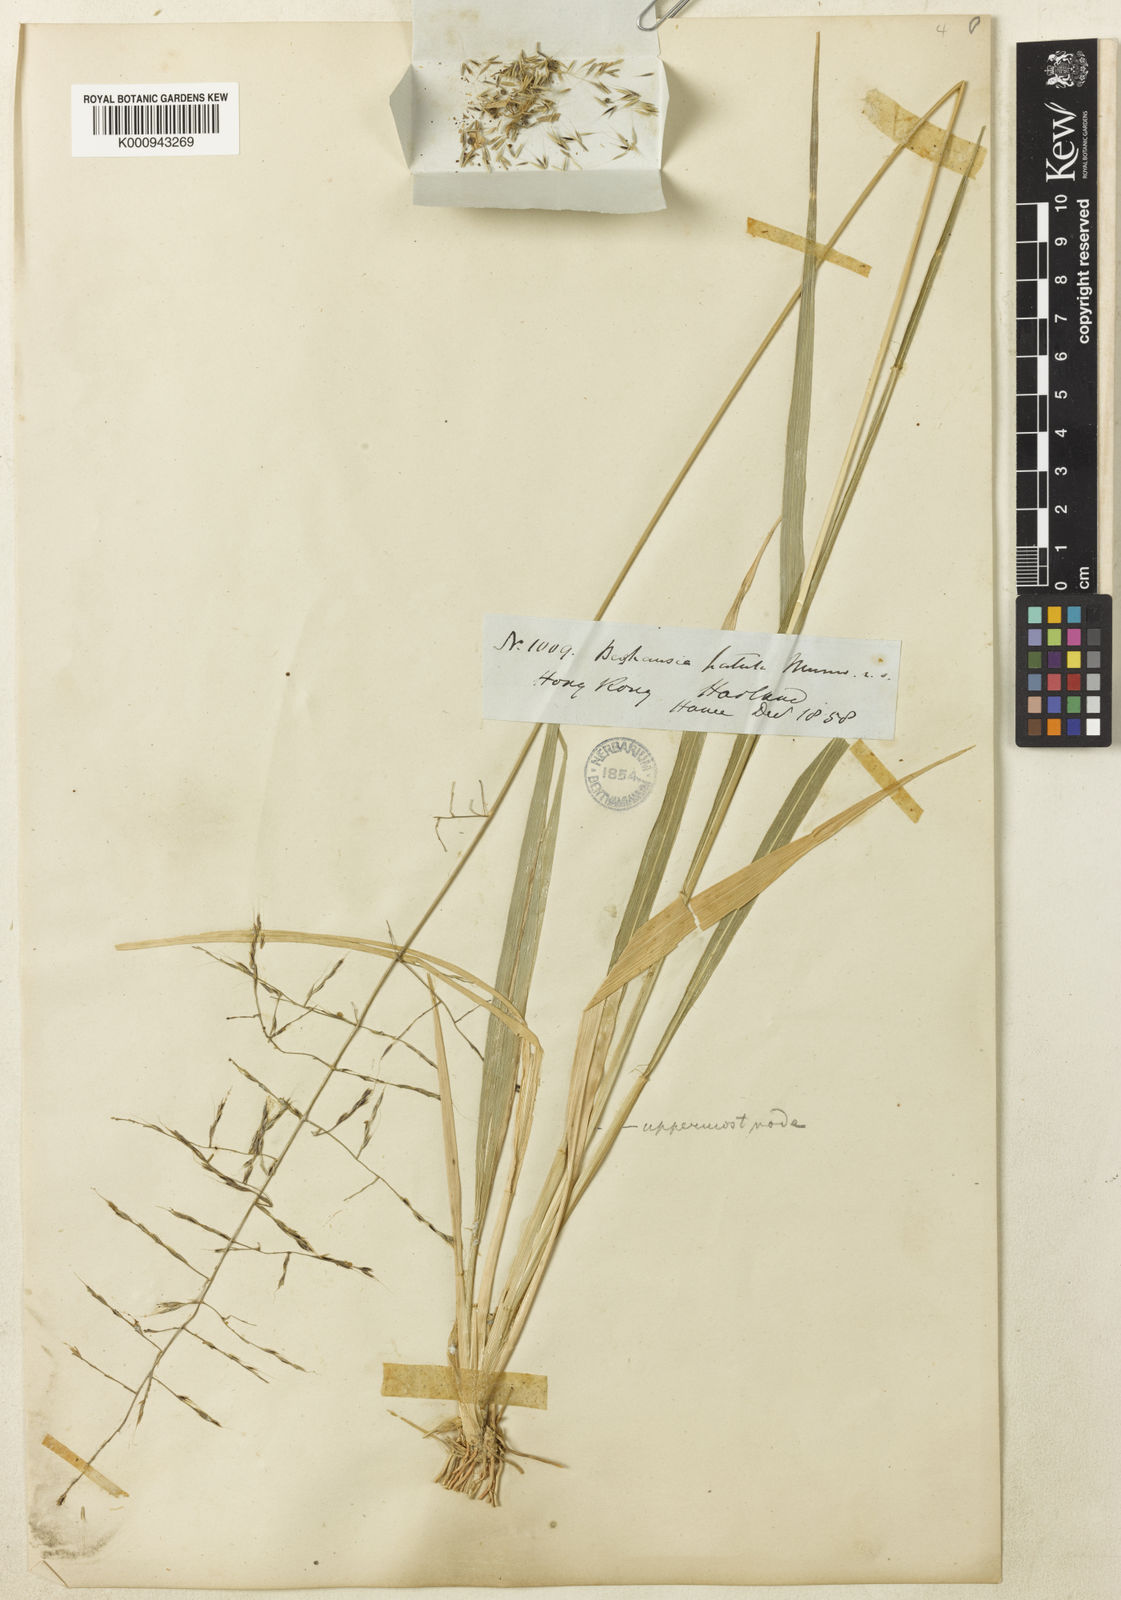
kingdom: Plantae
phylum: Tracheophyta
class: Liliopsida
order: Poales
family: Poaceae
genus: Garnotia
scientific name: Garnotia patula
